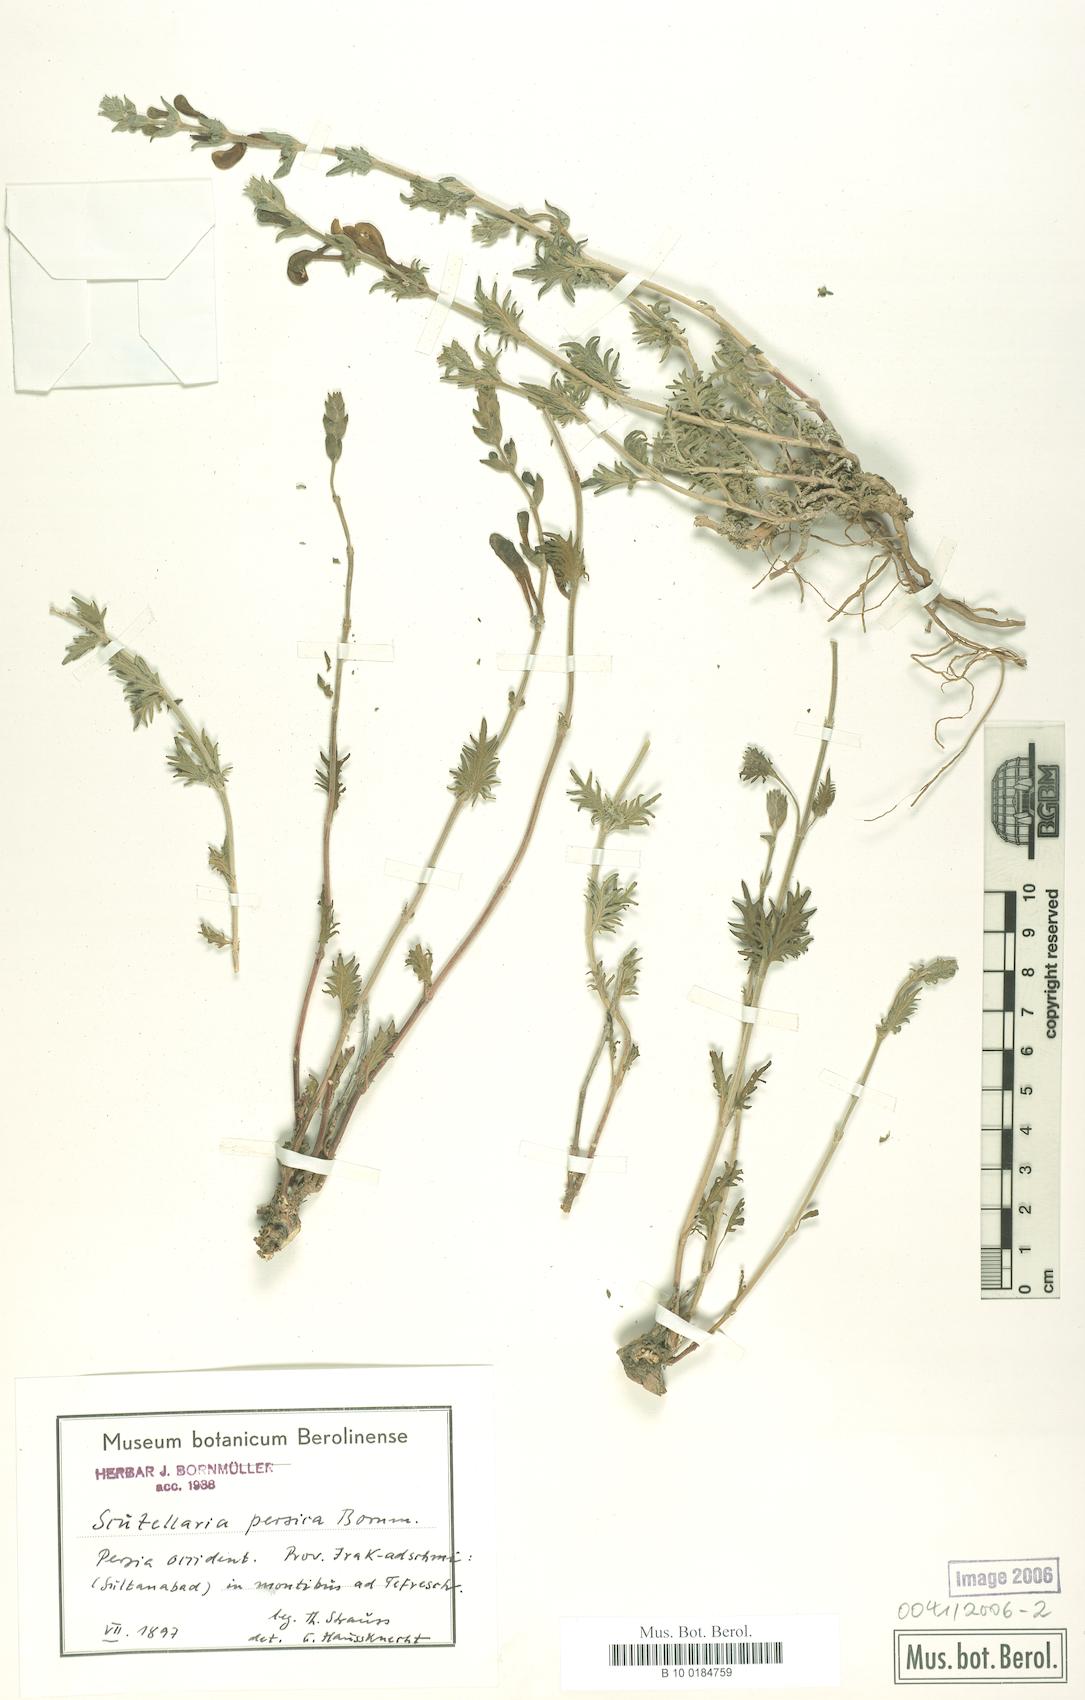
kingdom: Plantae
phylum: Tracheophyta
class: Magnoliopsida
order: Lamiales
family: Lamiaceae
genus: Scutellaria
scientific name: Scutellaria persica
